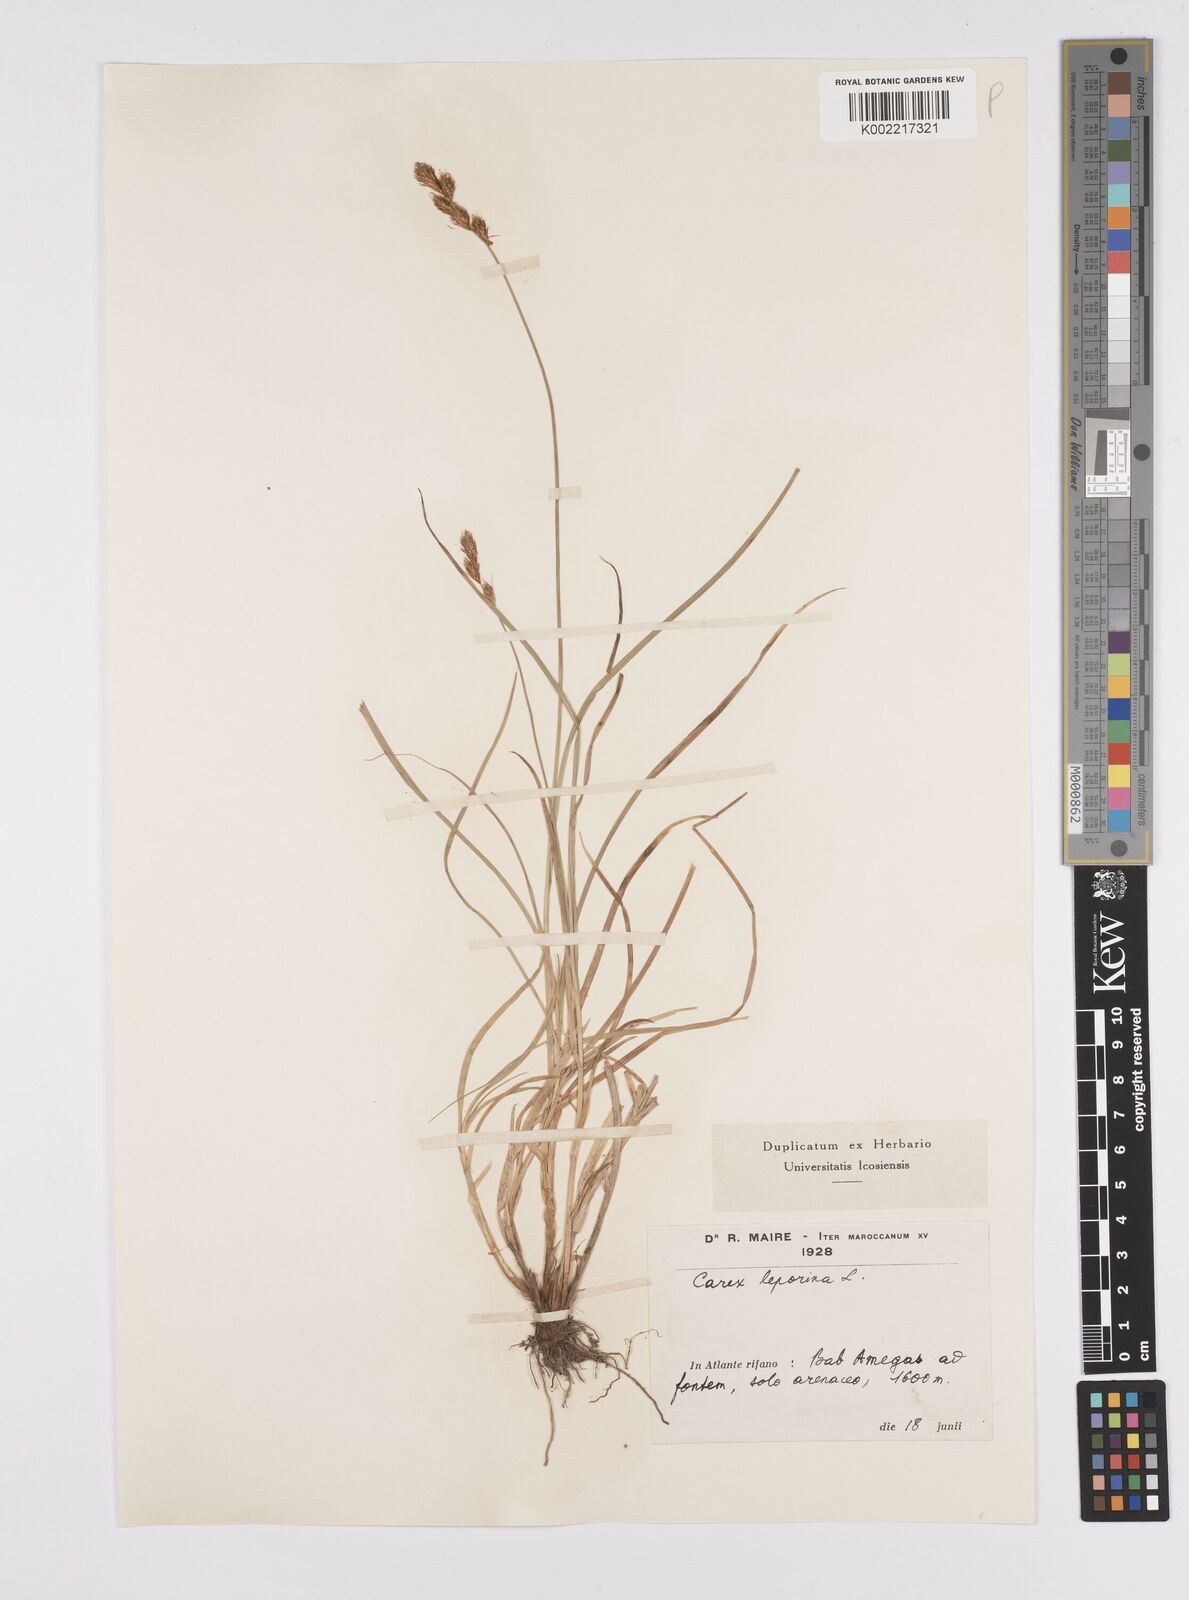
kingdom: Plantae
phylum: Tracheophyta
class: Liliopsida
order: Poales
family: Cyperaceae
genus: Carex
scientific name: Carex leporina
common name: Oval sedge
